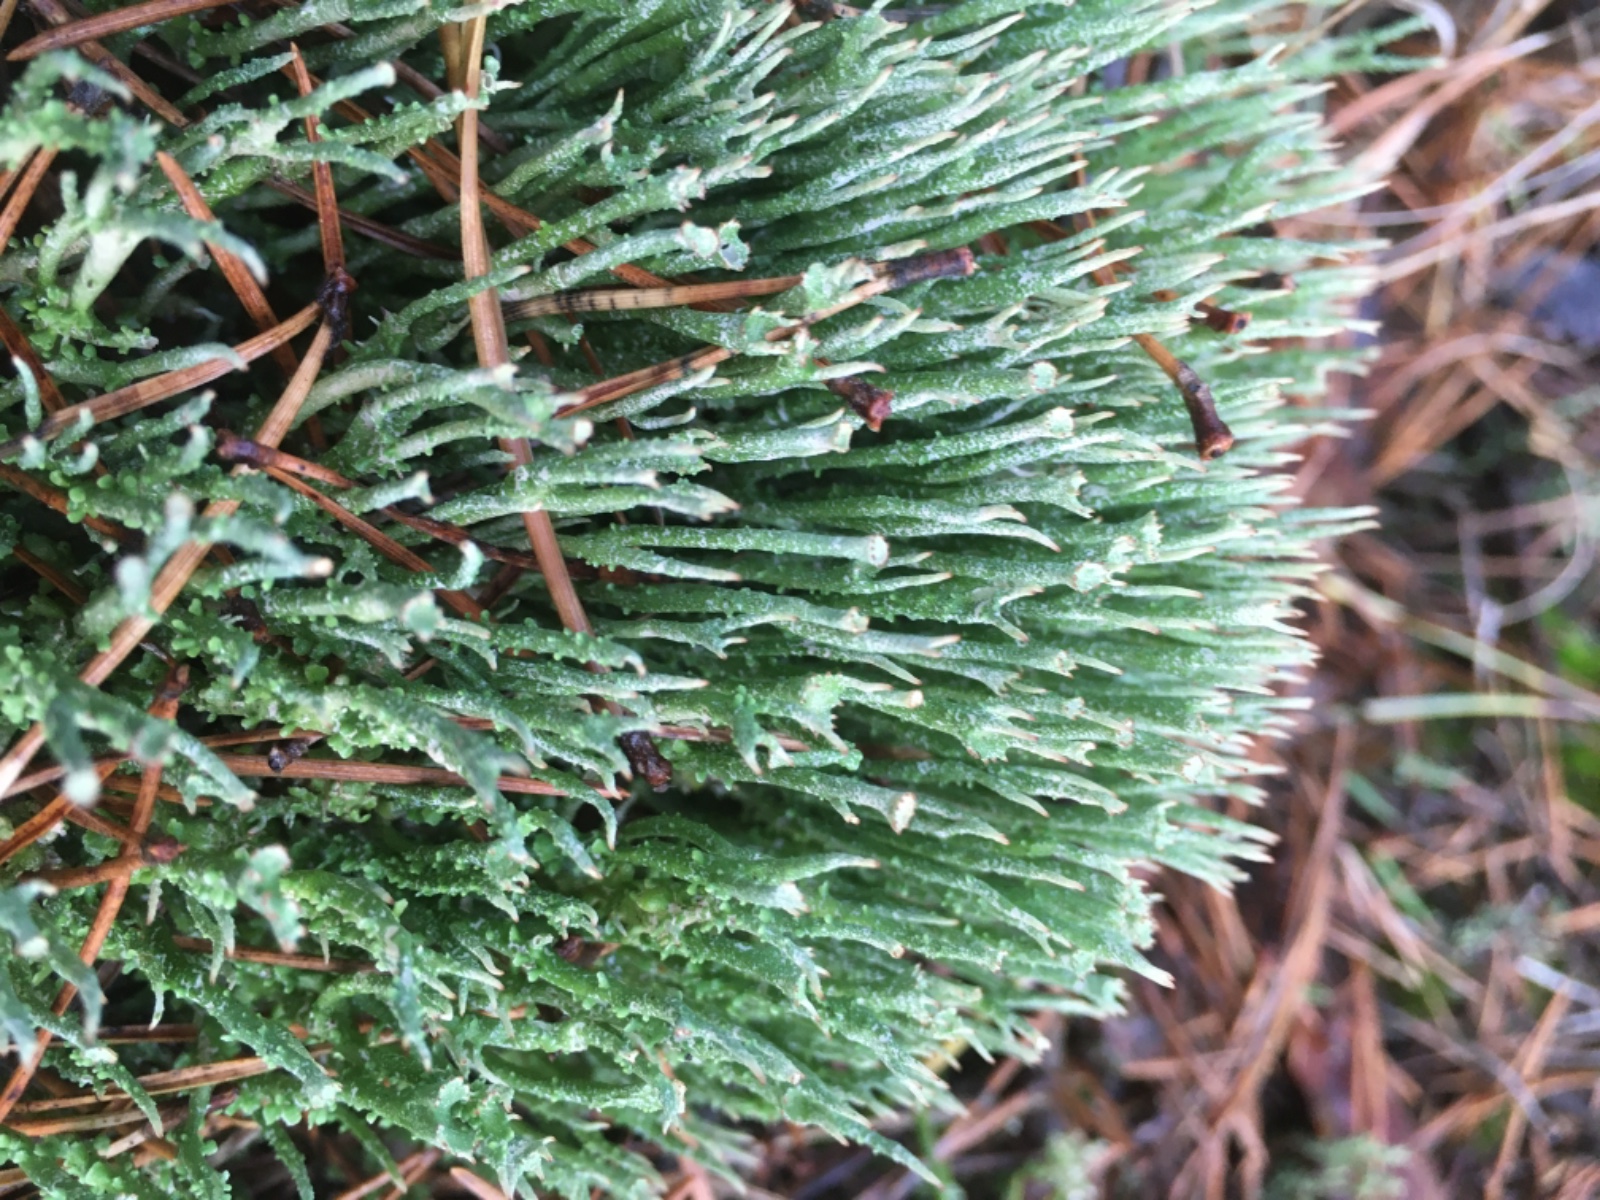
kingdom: Fungi
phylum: Ascomycota
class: Lecanoromycetes
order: Lecanorales
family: Cladoniaceae
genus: Cladonia
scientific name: Cladonia gracilis
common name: slank bægerlav
